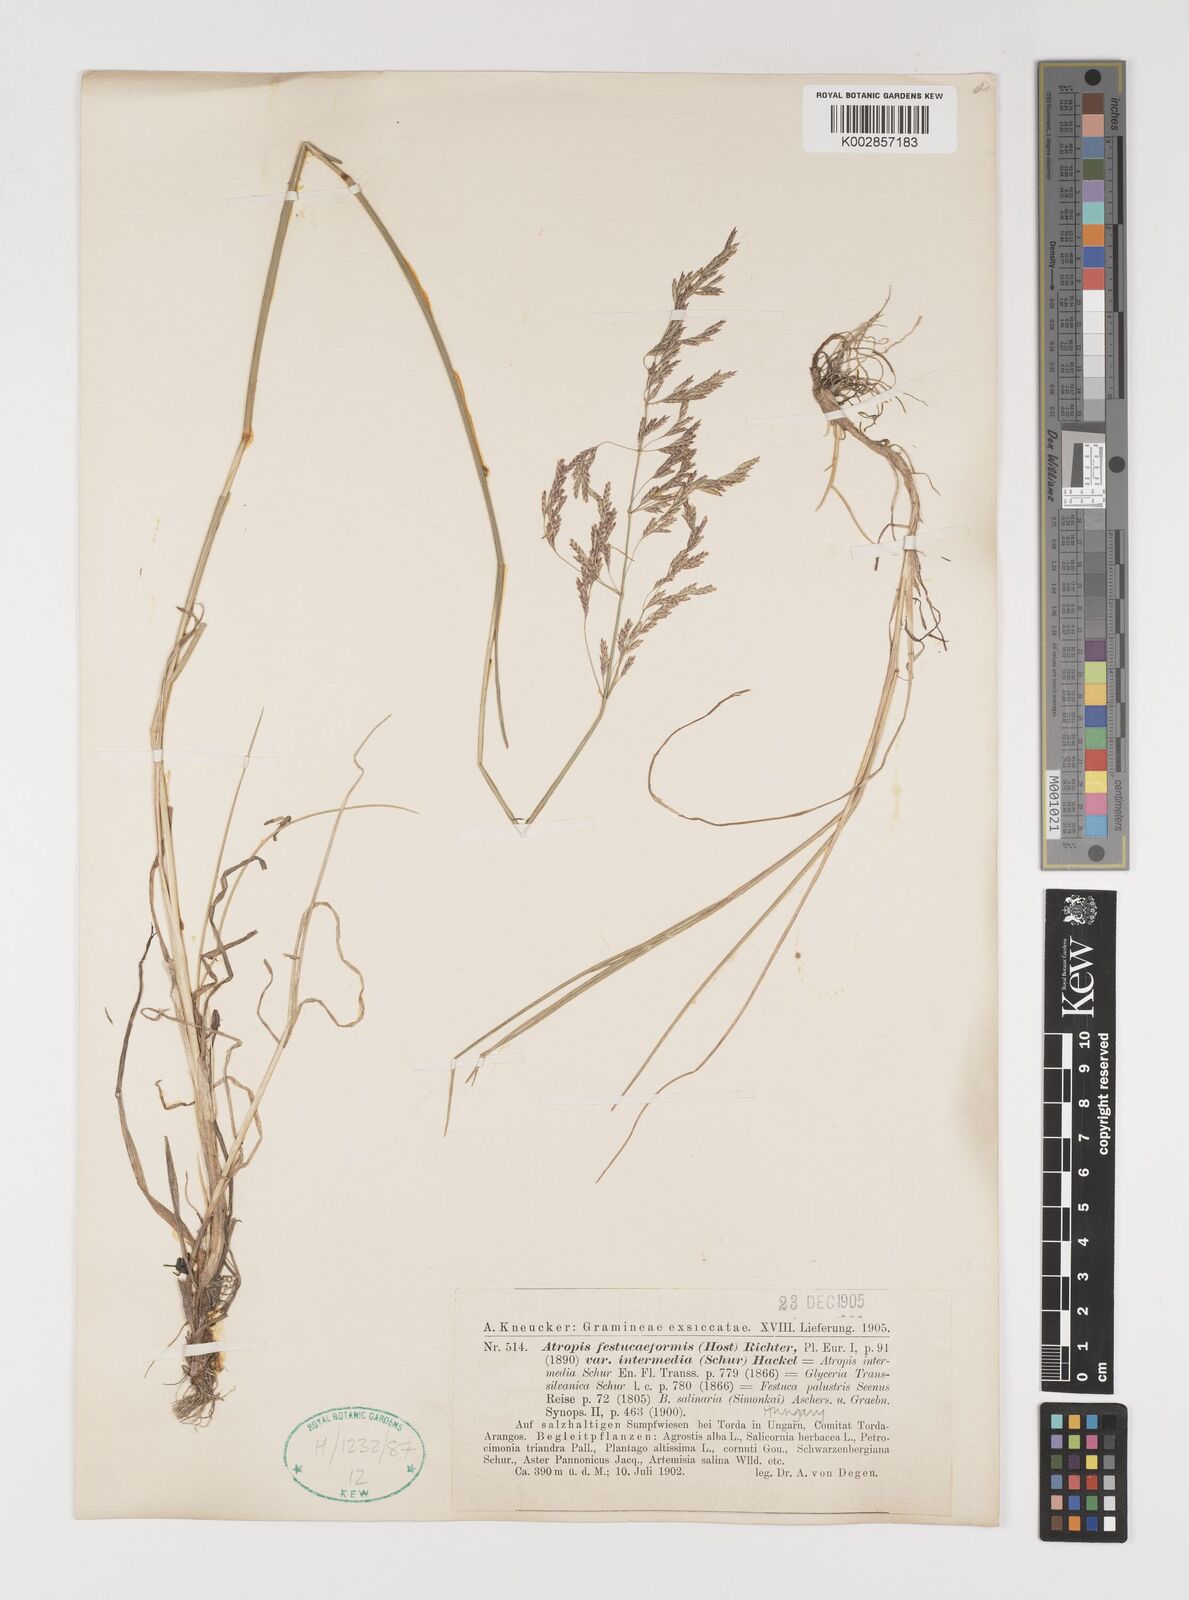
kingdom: Plantae
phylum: Tracheophyta
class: Liliopsida
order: Poales
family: Poaceae
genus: Puccinellia
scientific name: Puccinellia intermedia
